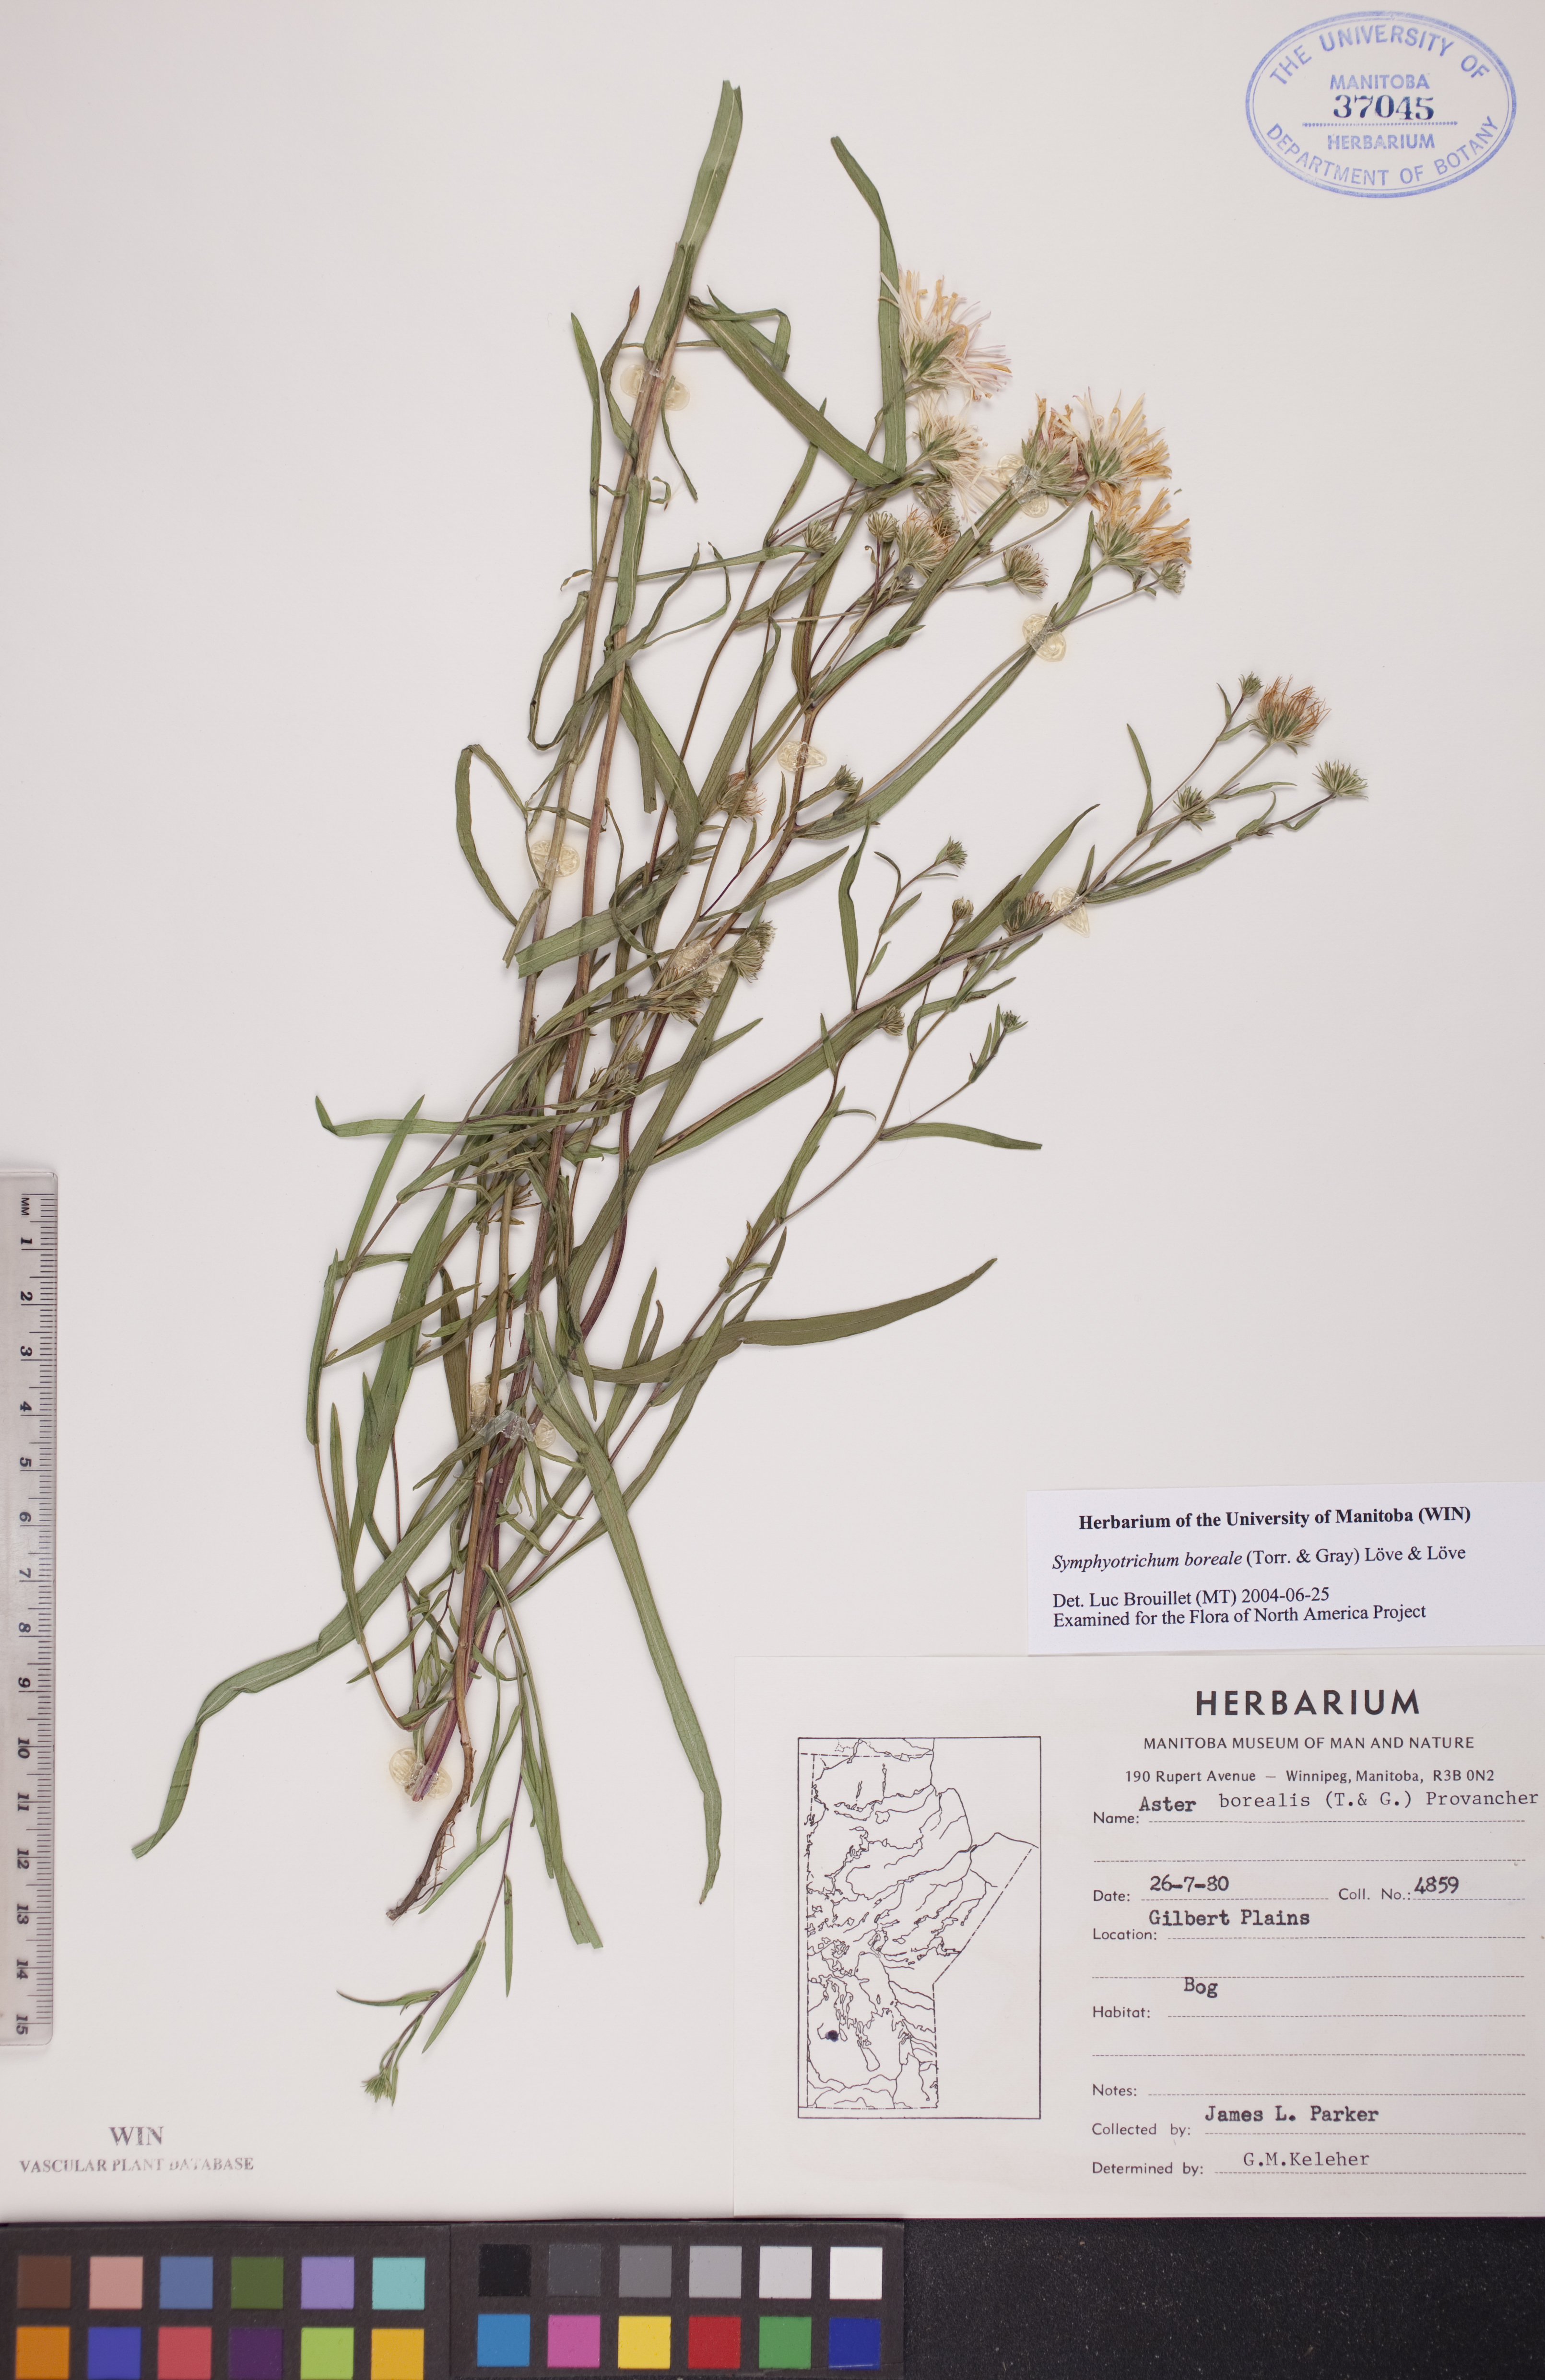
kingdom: Plantae
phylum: Tracheophyta
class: Magnoliopsida
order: Asterales
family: Asteraceae
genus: Symphyotrichum
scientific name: Symphyotrichum boreale
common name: Northern bog aster
